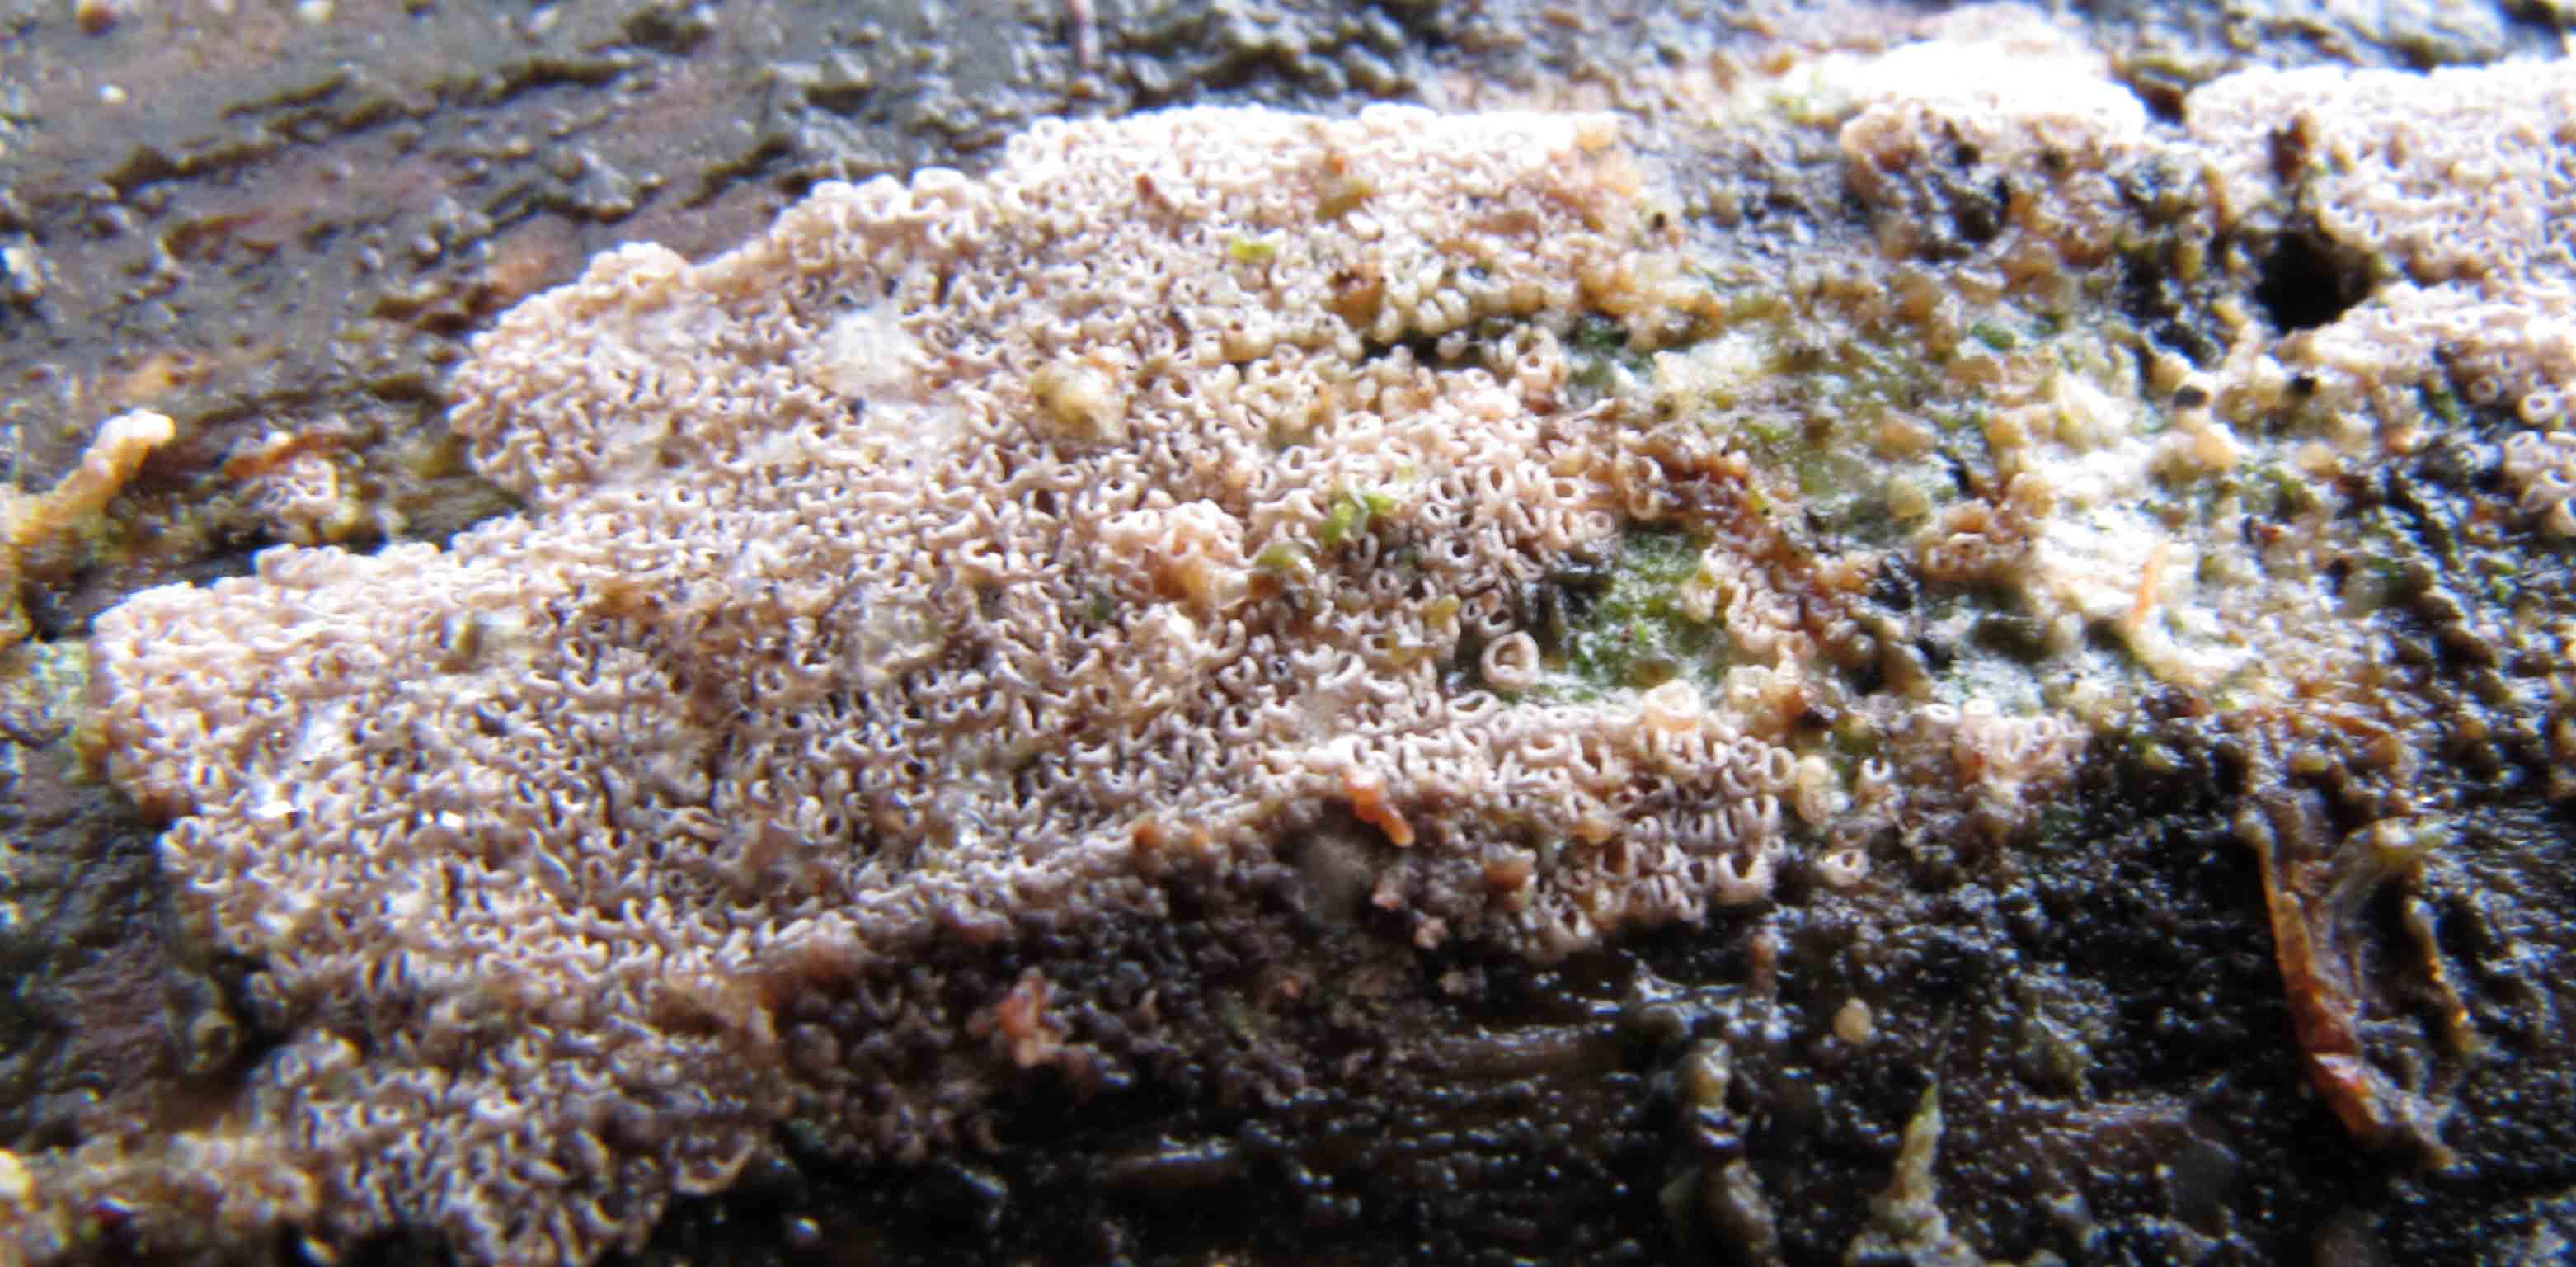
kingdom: Fungi
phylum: Basidiomycota
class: Agaricomycetes
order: Agaricales
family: Pleurotaceae
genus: Resupinatus
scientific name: Resupinatus poriaeformis
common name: tæpperør
